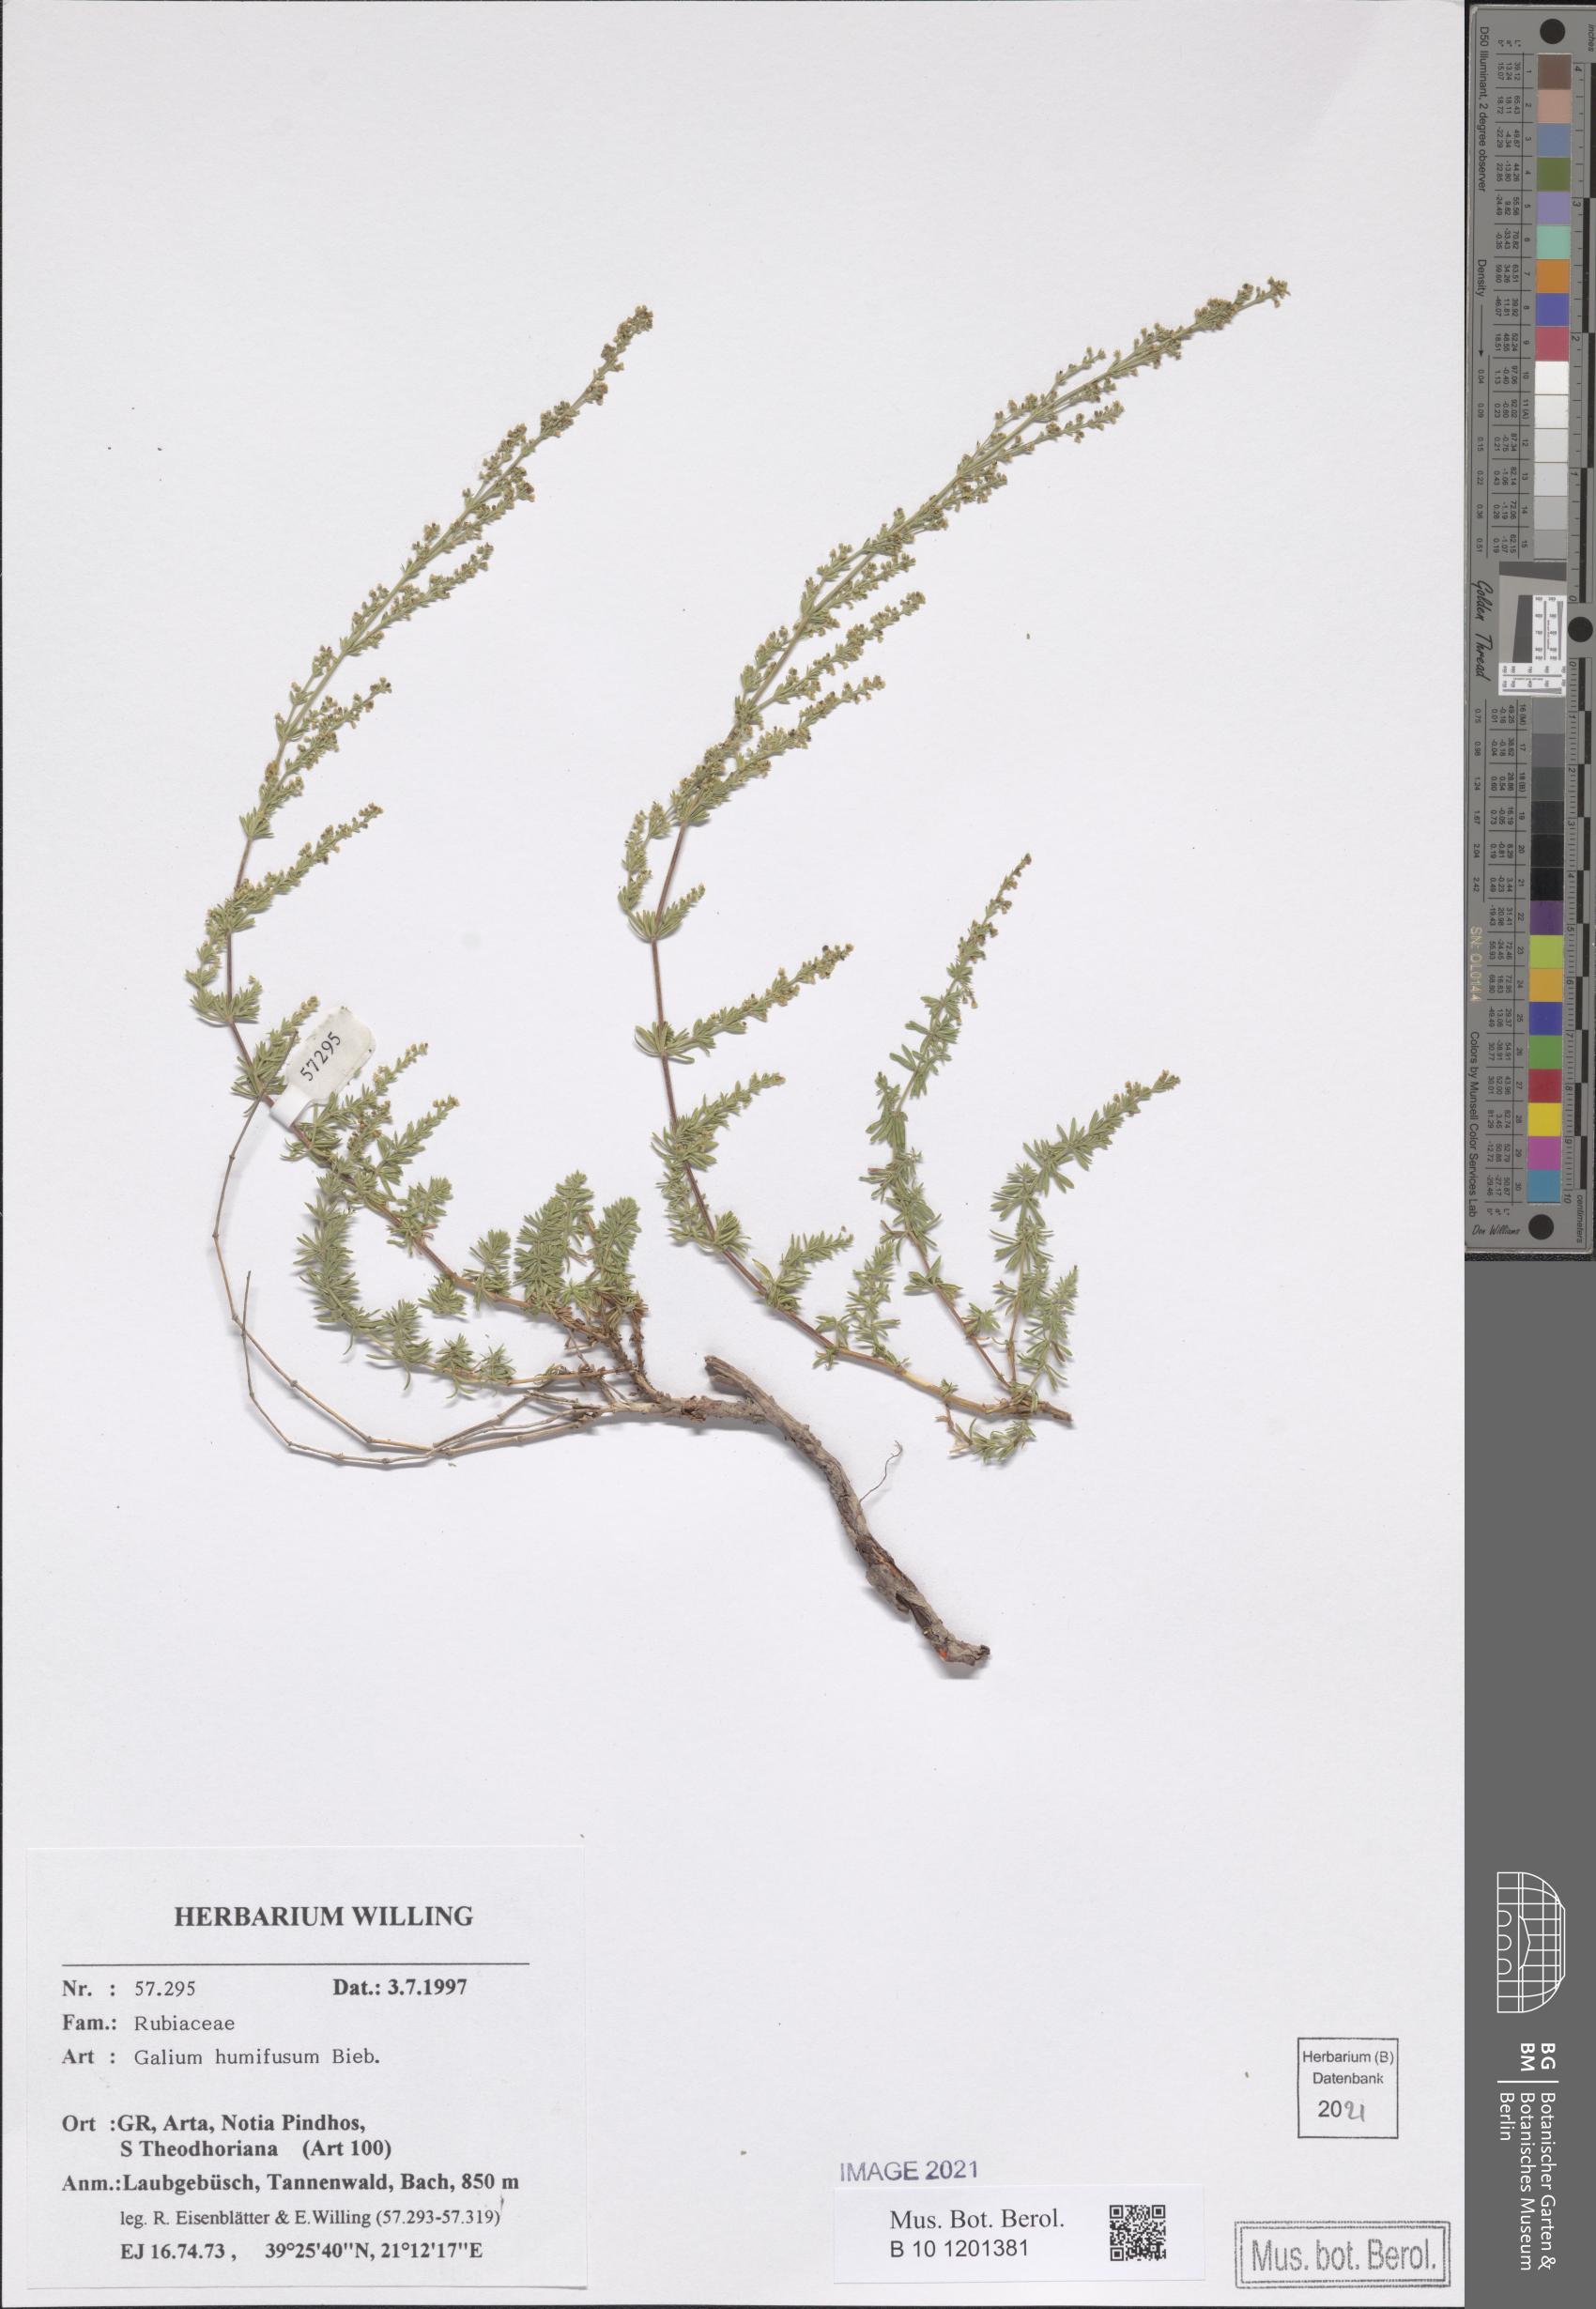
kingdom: Plantae
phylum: Tracheophyta
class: Magnoliopsida
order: Gentianales
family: Rubiaceae
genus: Galium
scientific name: Galium humifusum
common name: Spreading bedstraw
